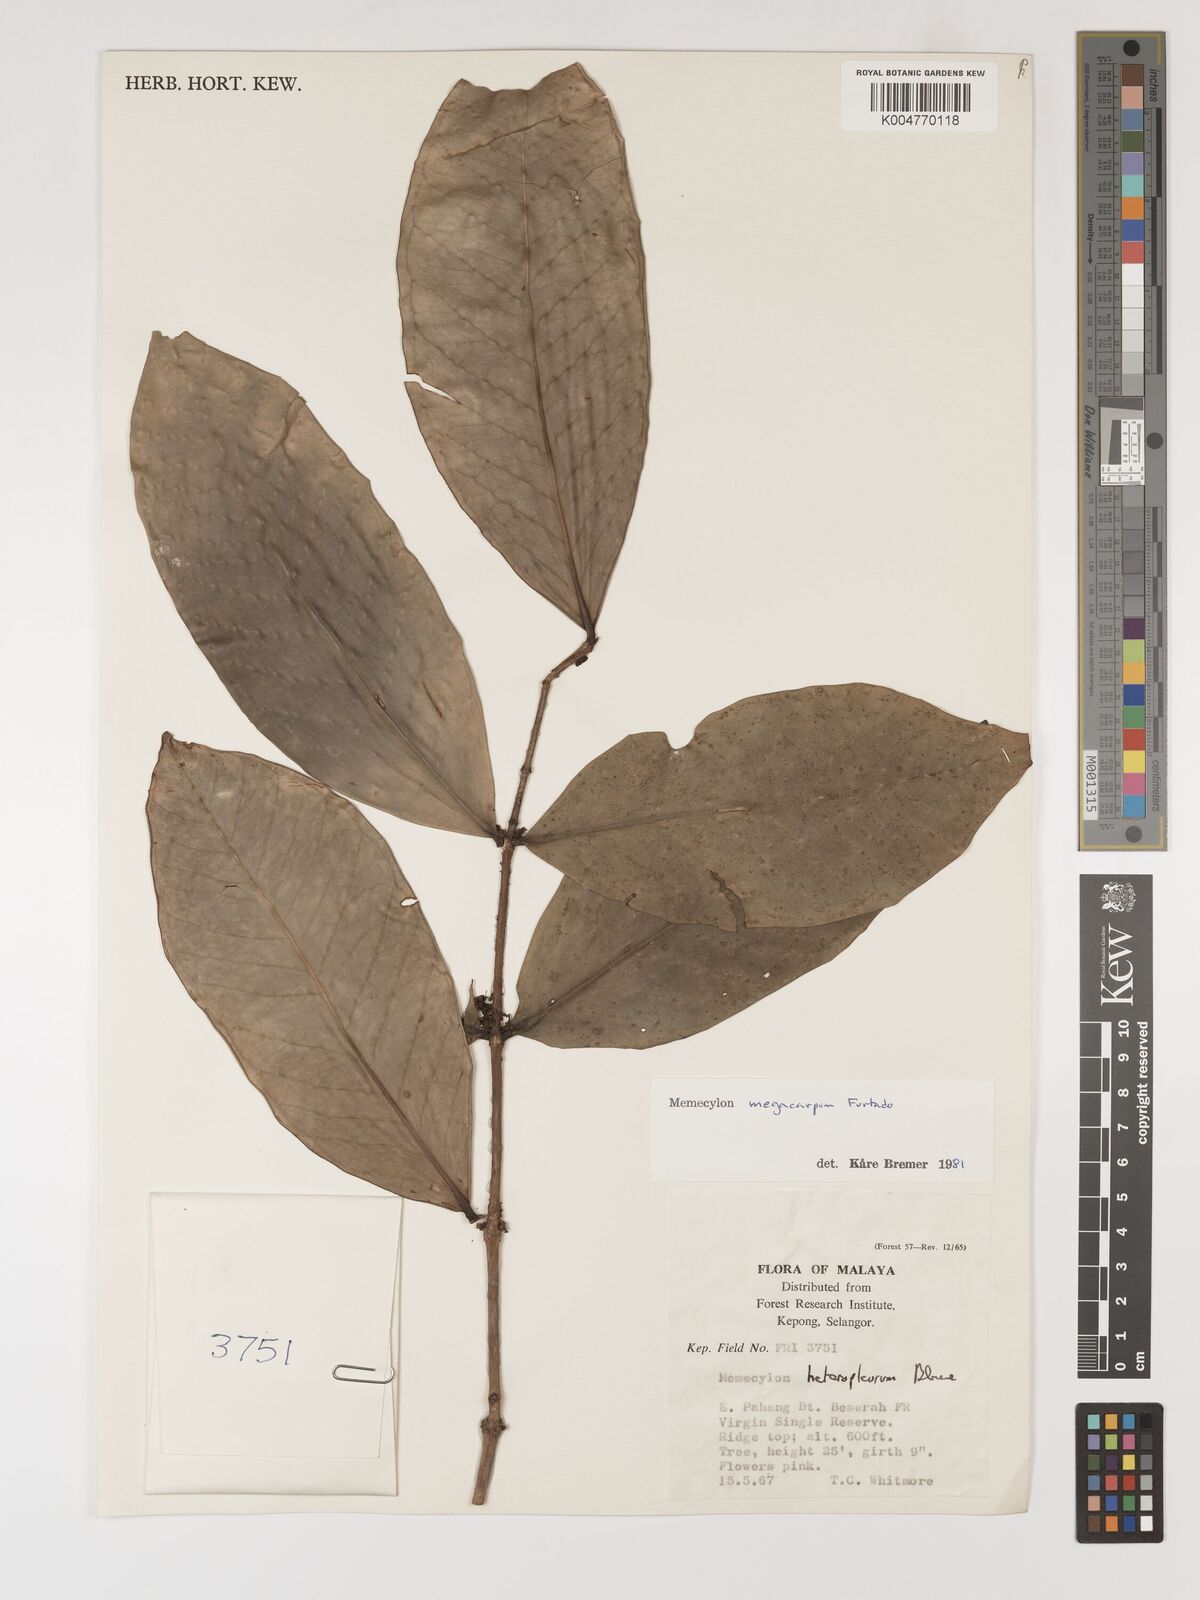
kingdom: Plantae
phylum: Tracheophyta
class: Magnoliopsida
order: Myrtales
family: Melastomataceae
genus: Memecylon
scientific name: Memecylon megacarpum
